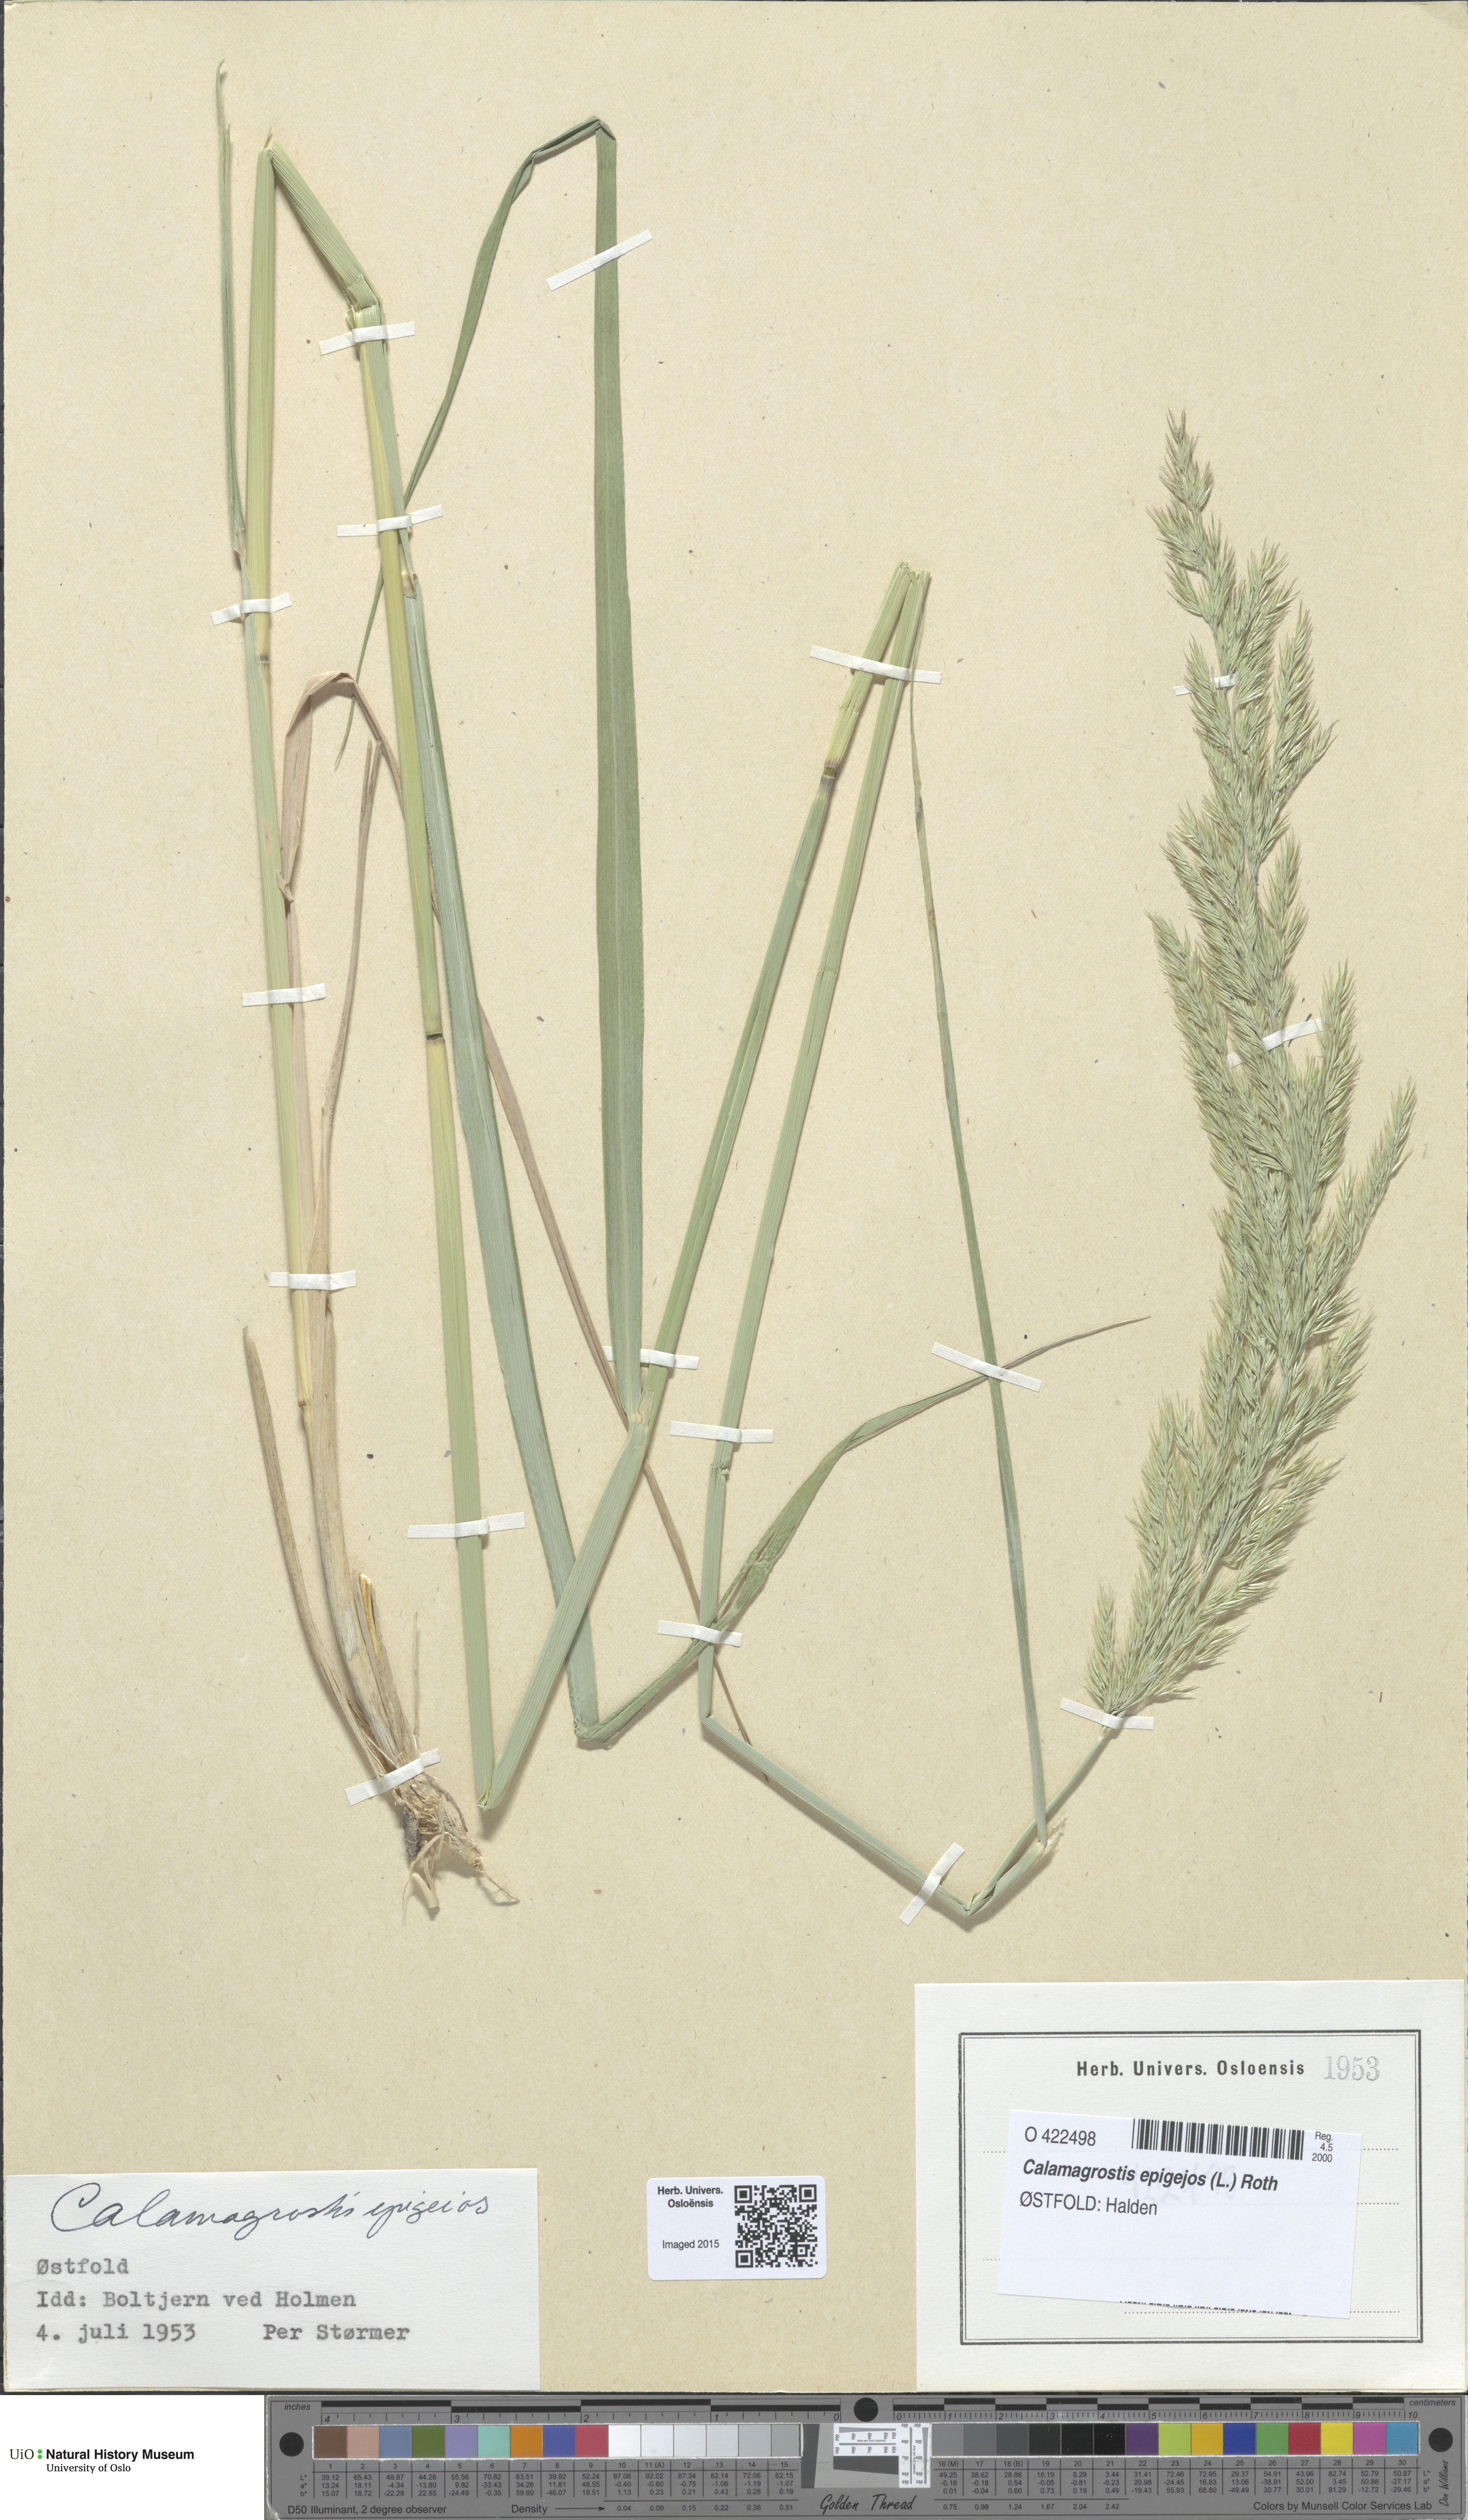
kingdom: Plantae
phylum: Tracheophyta
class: Liliopsida
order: Poales
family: Poaceae
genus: Calamagrostis
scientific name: Calamagrostis epigejos
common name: Wood small-reed
